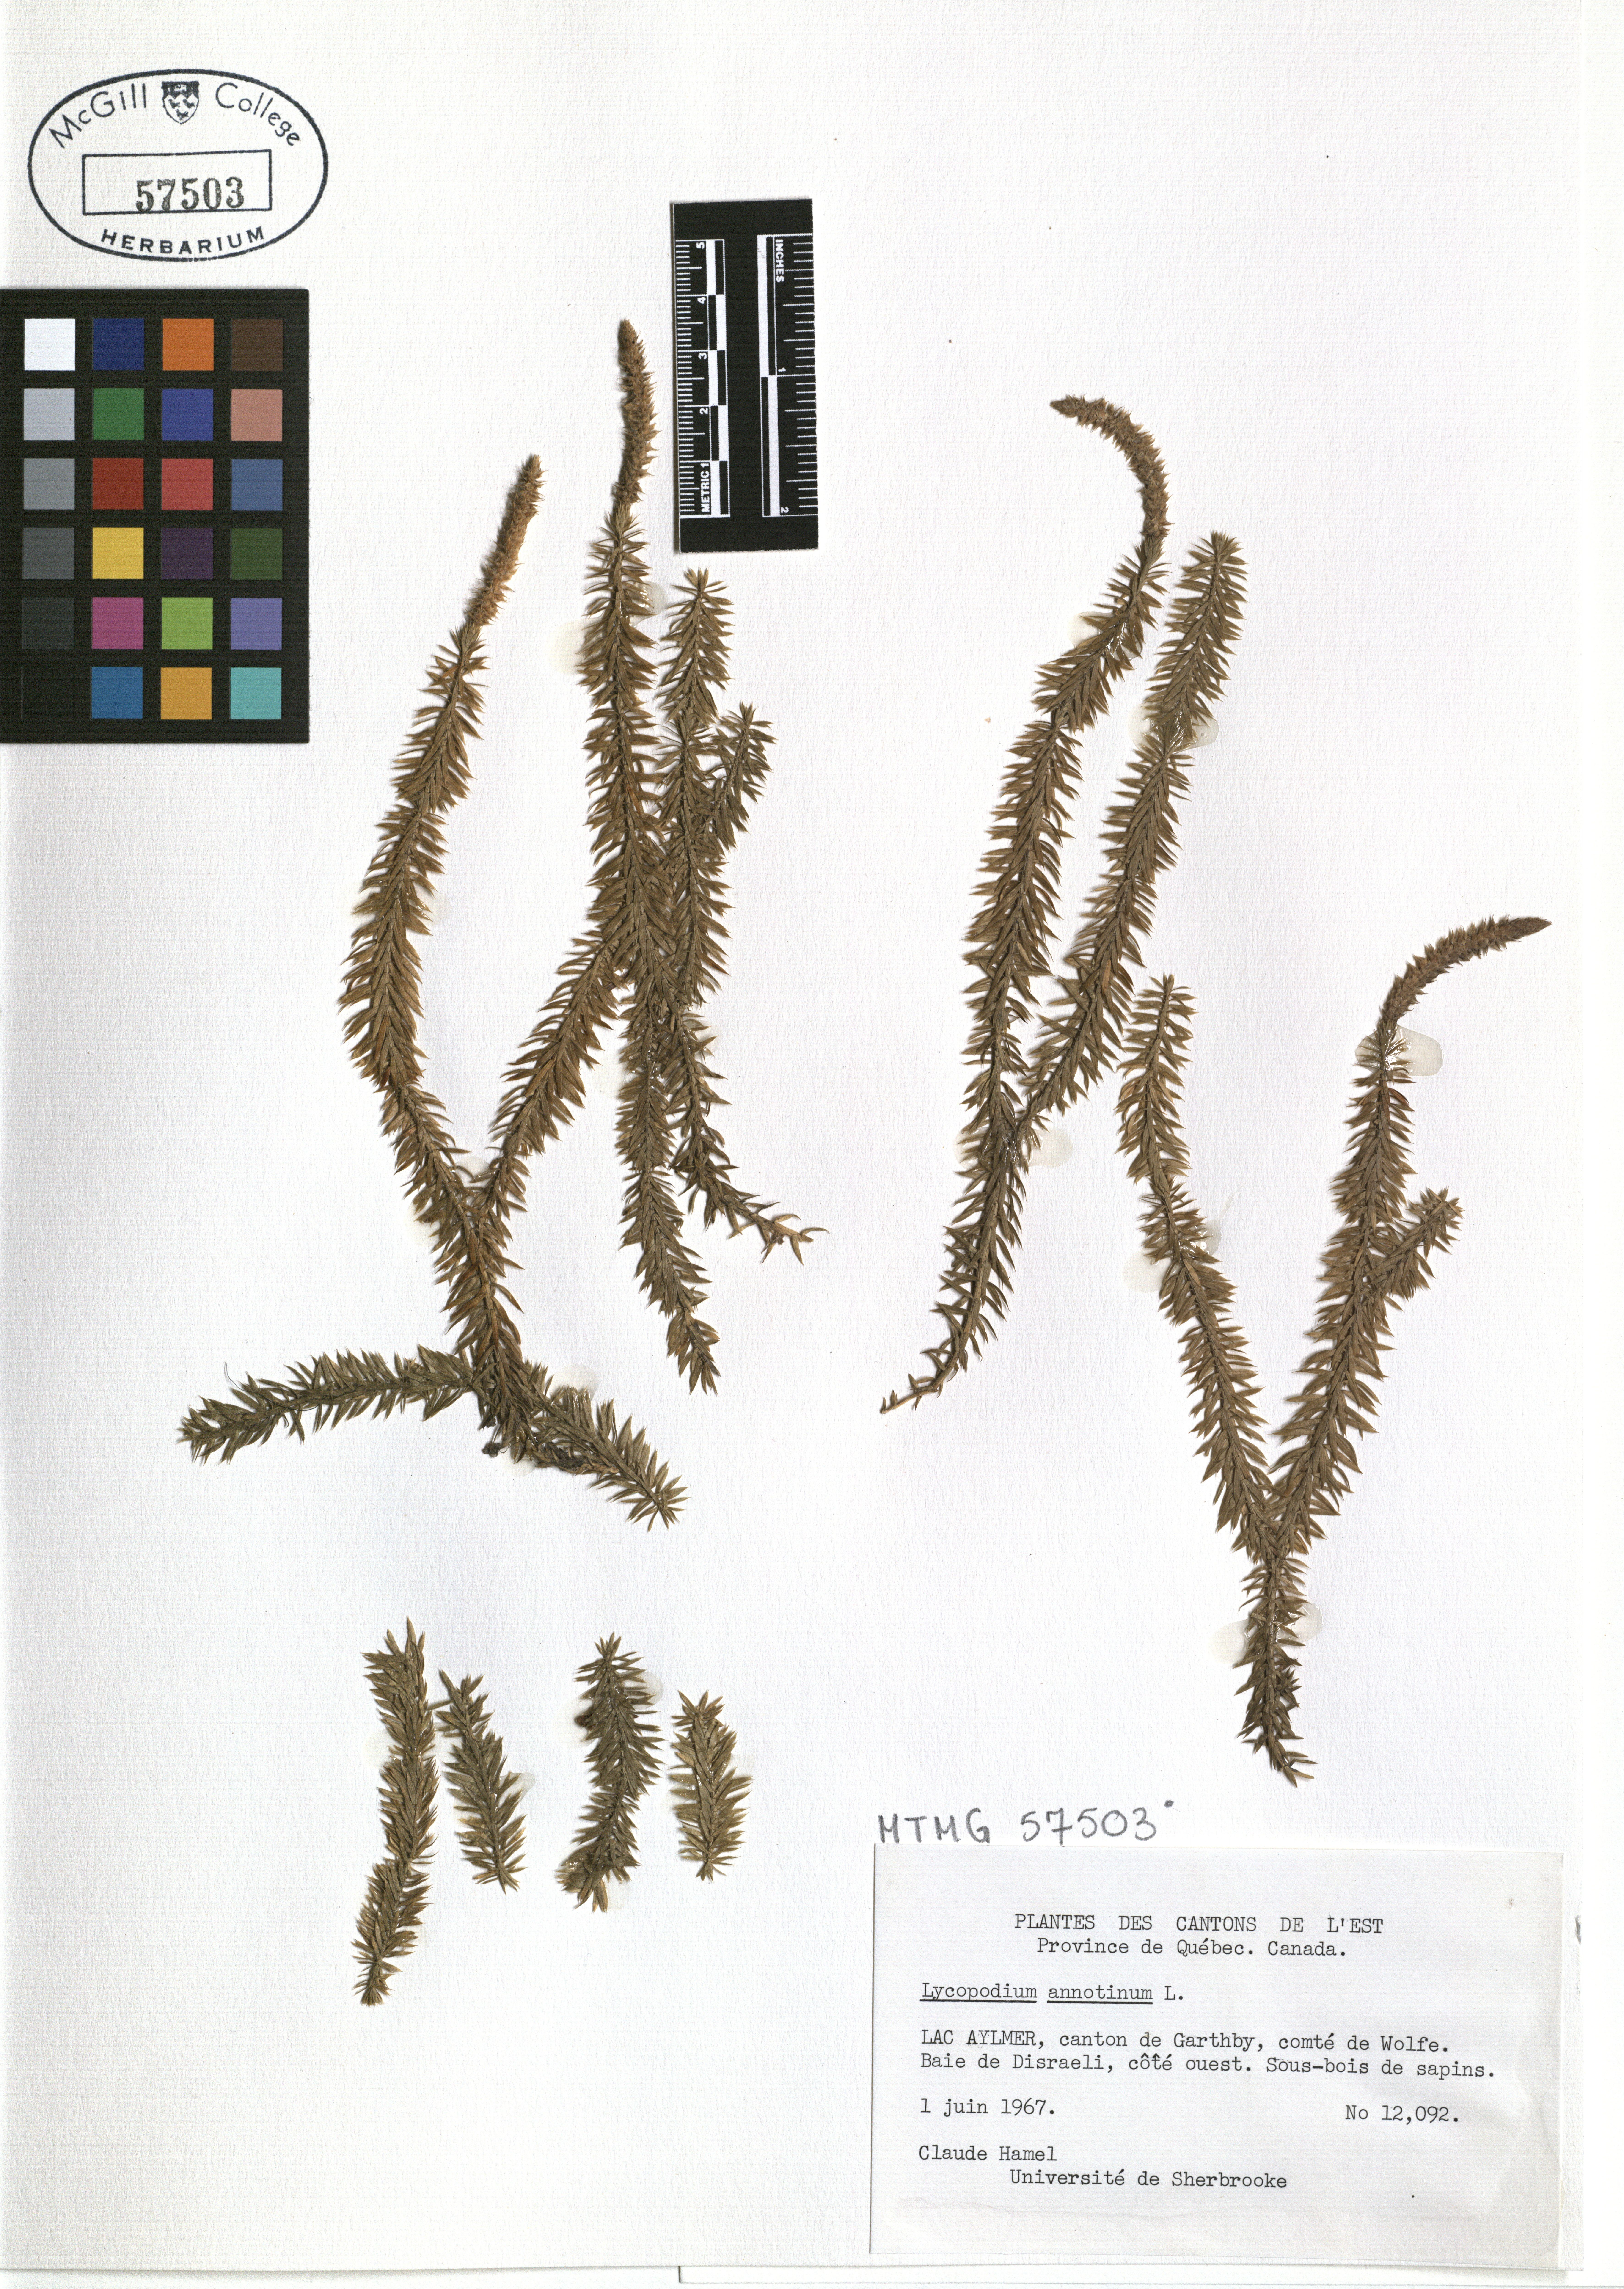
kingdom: Plantae
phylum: Tracheophyta
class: Lycopodiopsida
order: Lycopodiales
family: Lycopodiaceae
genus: Spinulum
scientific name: Spinulum annotinum
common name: Interrupted club-moss
